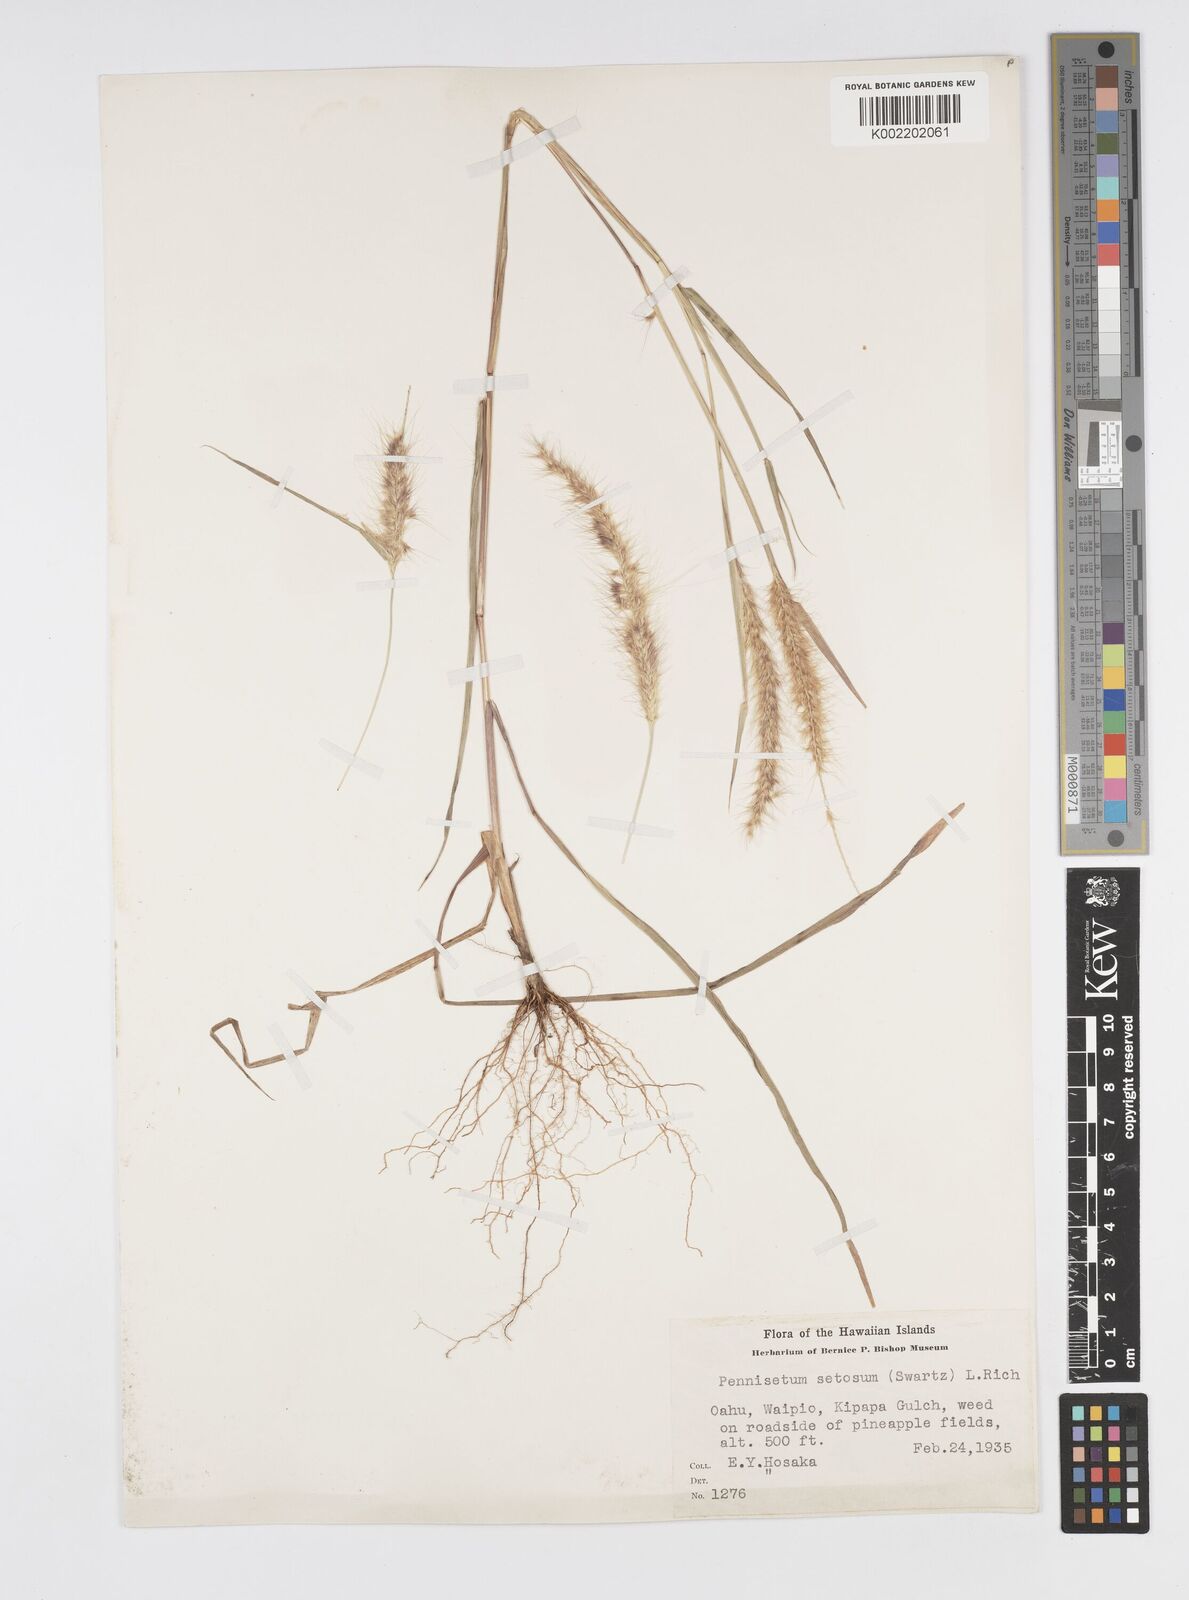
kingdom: Plantae
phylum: Tracheophyta
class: Liliopsida
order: Poales
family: Poaceae
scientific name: Poaceae
